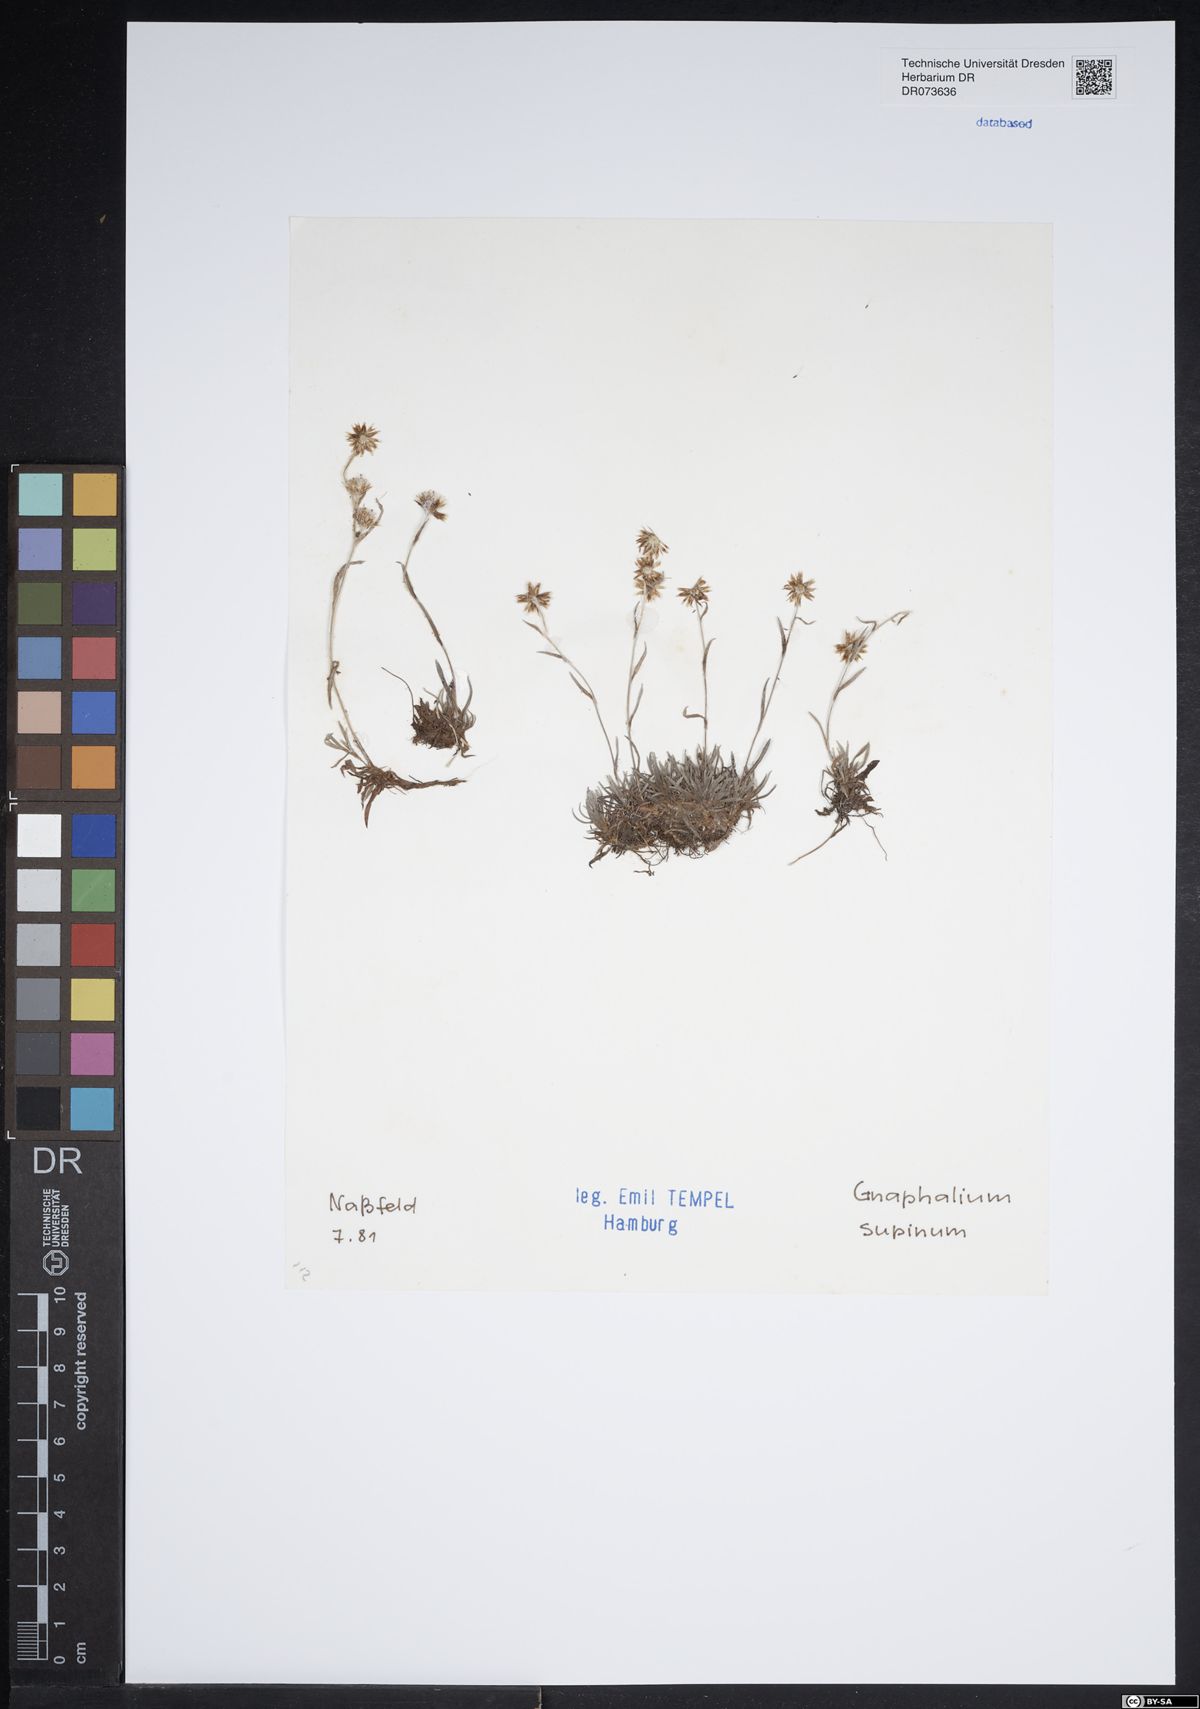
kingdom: Plantae
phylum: Tracheophyta
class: Magnoliopsida
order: Asterales
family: Asteraceae
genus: Omalotheca
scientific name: Omalotheca supina
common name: Alpine arctic-cudweed
